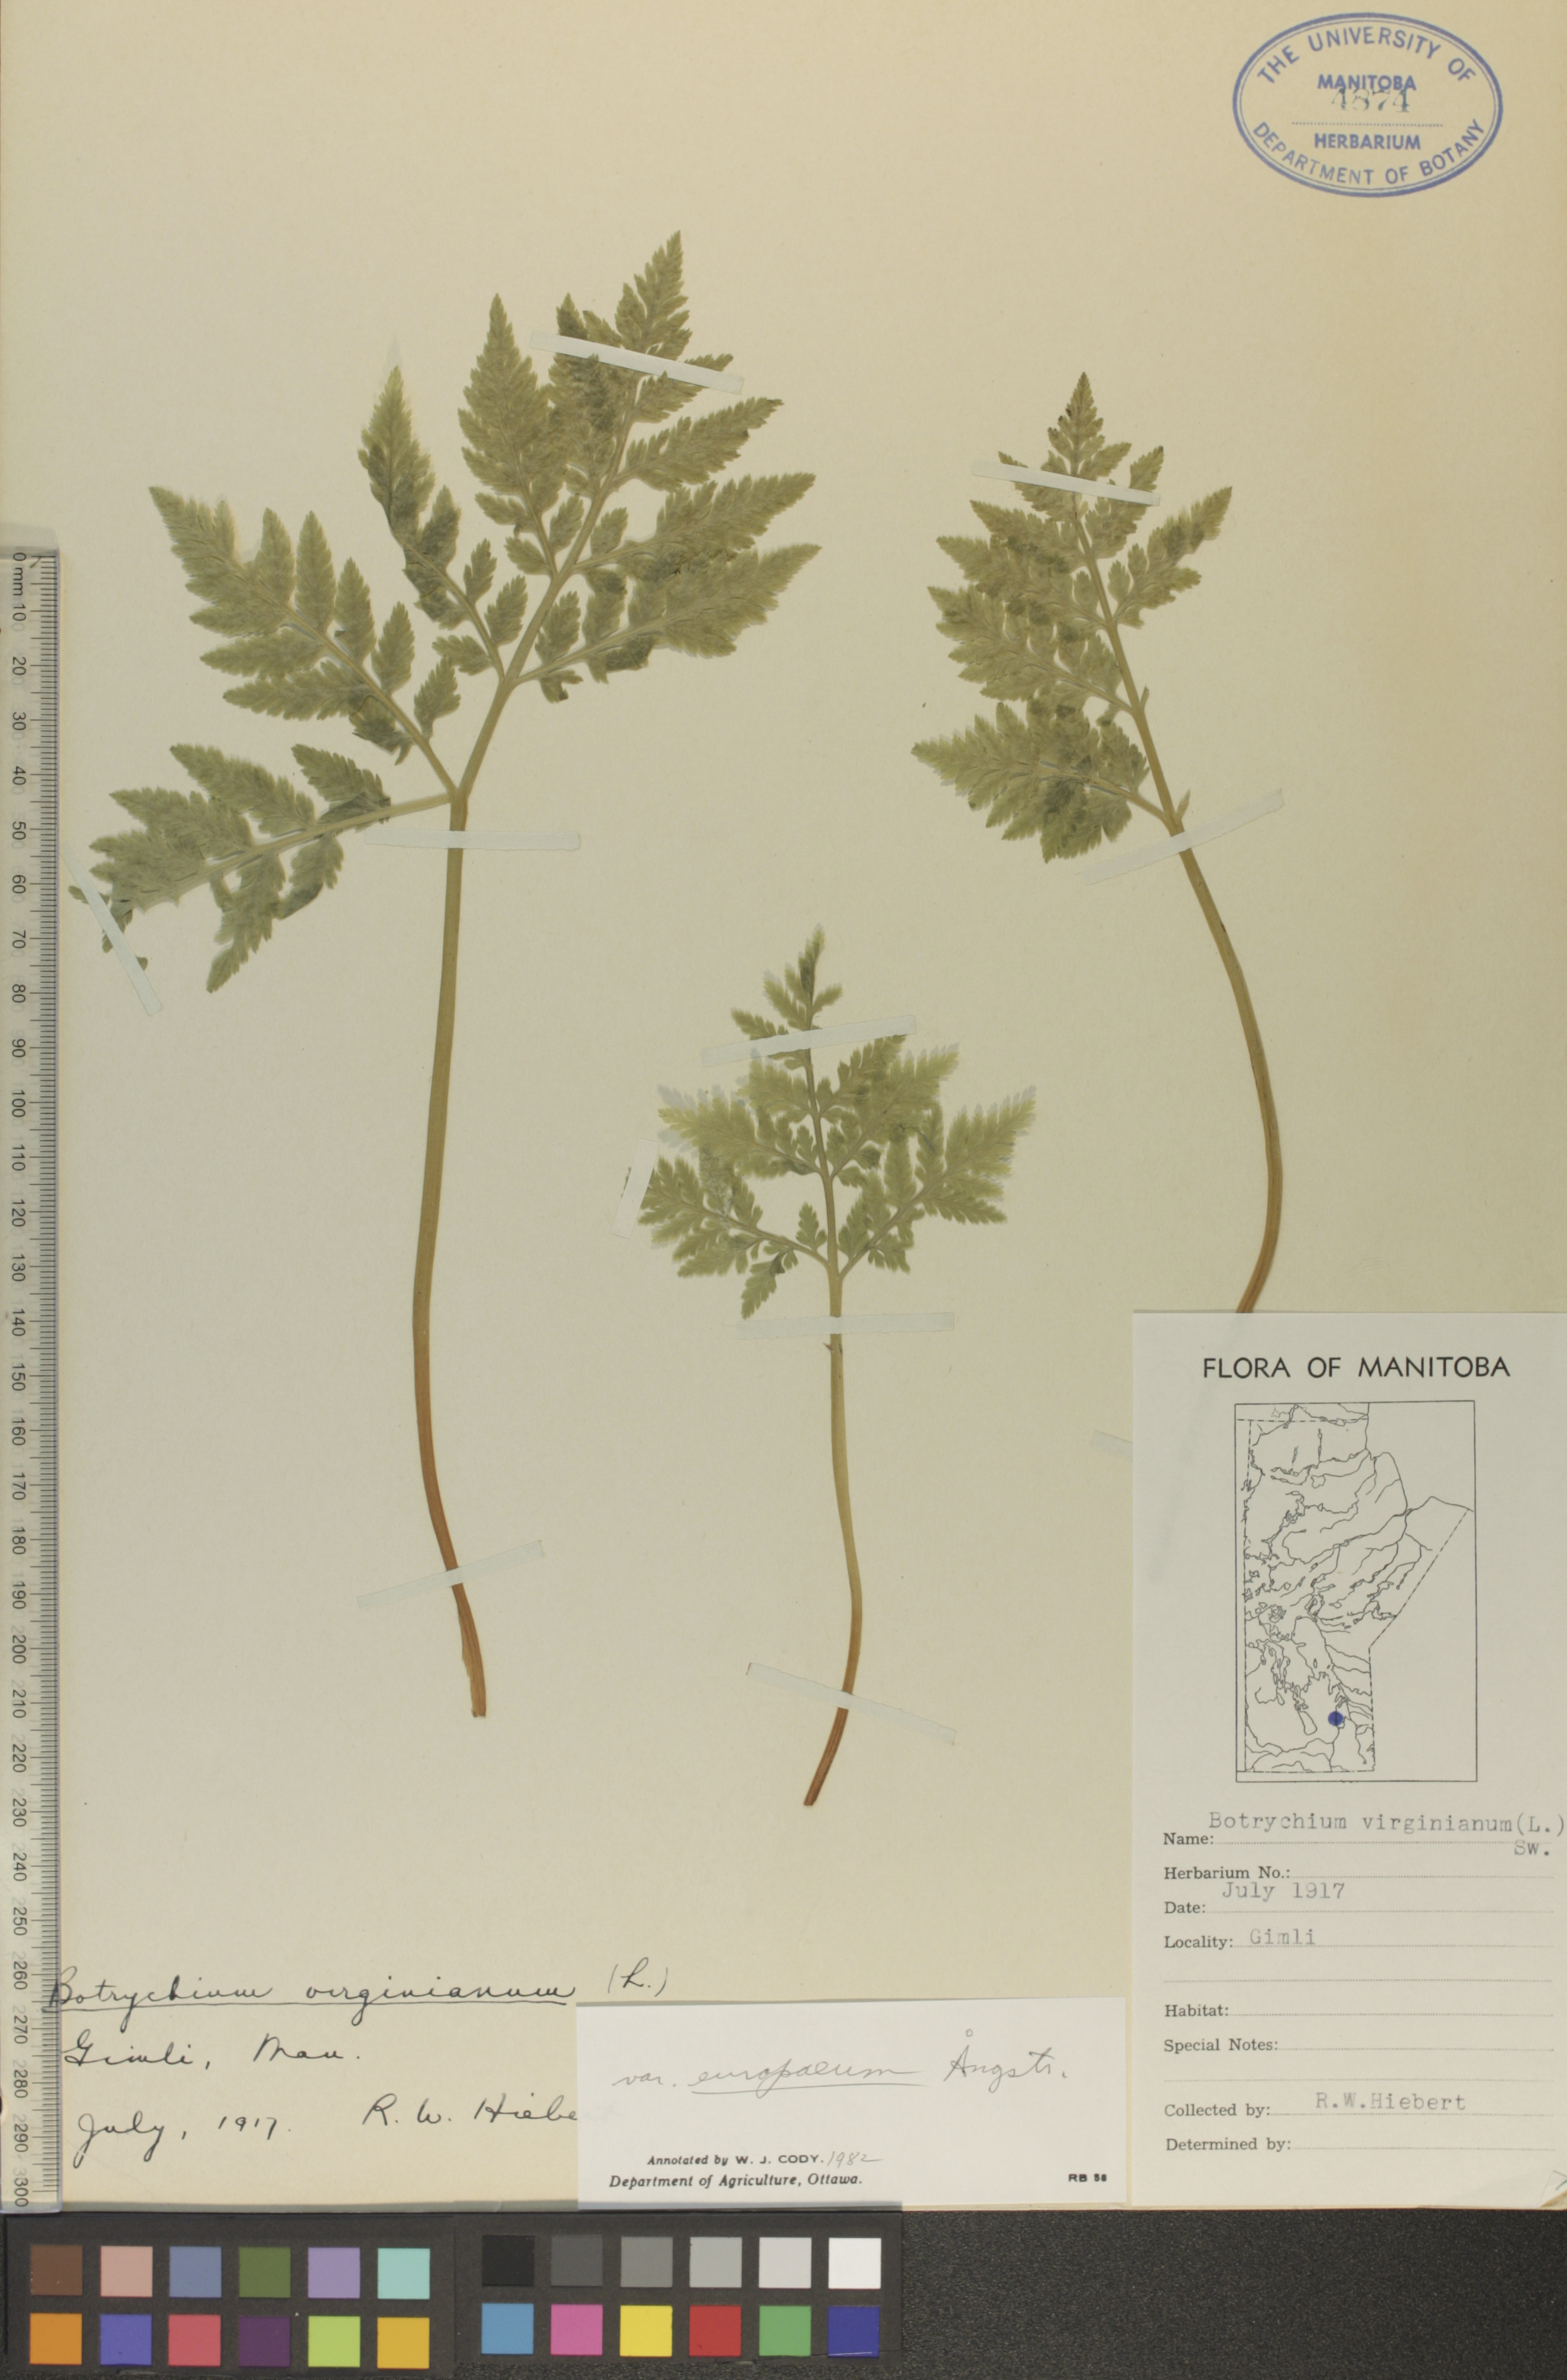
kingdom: Plantae
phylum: Tracheophyta
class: Polypodiopsida
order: Ophioglossales
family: Ophioglossaceae
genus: Botrypus
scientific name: Botrypus virginianus
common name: Common grapefern
